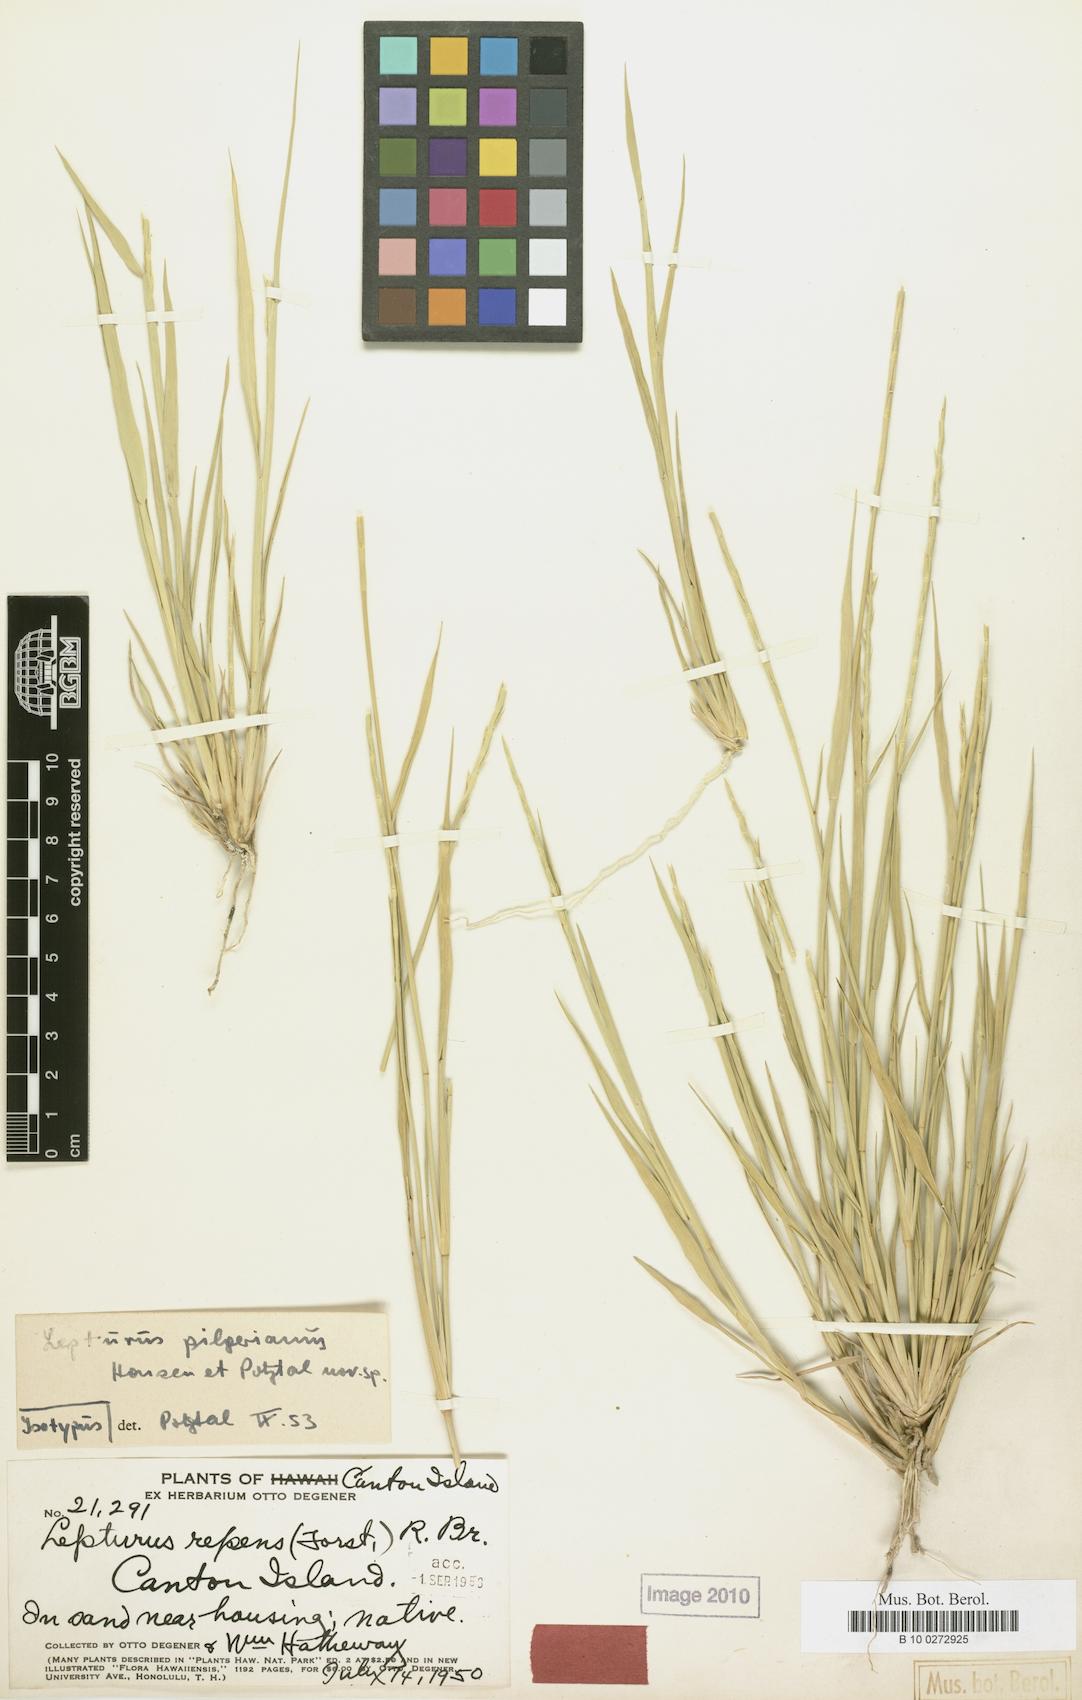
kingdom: Plantae
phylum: Tracheophyta
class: Liliopsida
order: Poales
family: Poaceae
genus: Lepturus
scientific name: Lepturus repens
